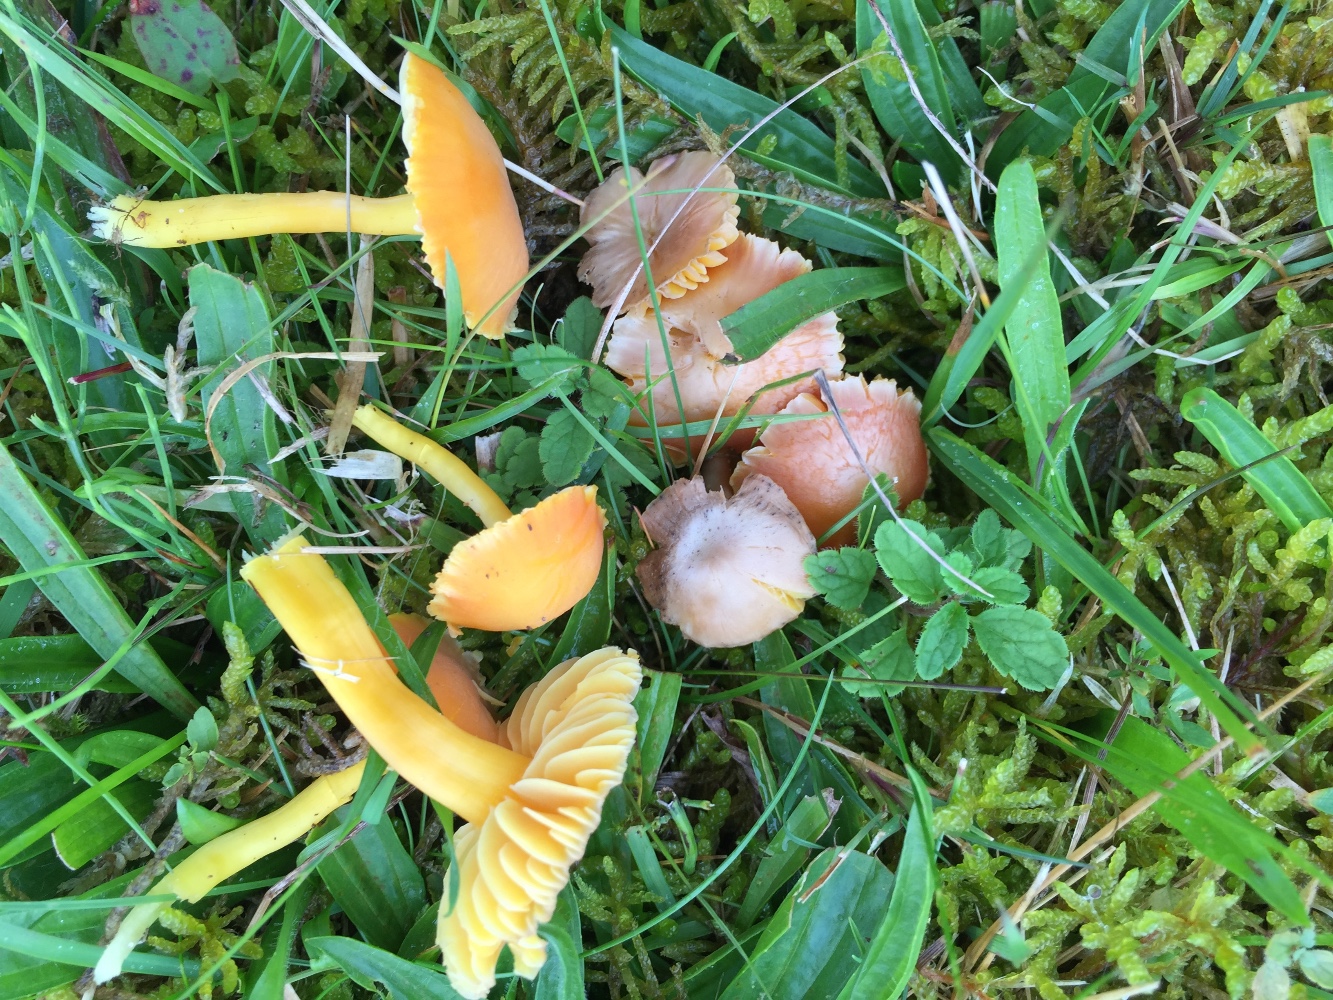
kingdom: Fungi
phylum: Basidiomycota
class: Agaricomycetes
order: Agaricales
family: Hygrophoraceae
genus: Hygrocybe
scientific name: Hygrocybe reidii
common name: honning-vokshat
